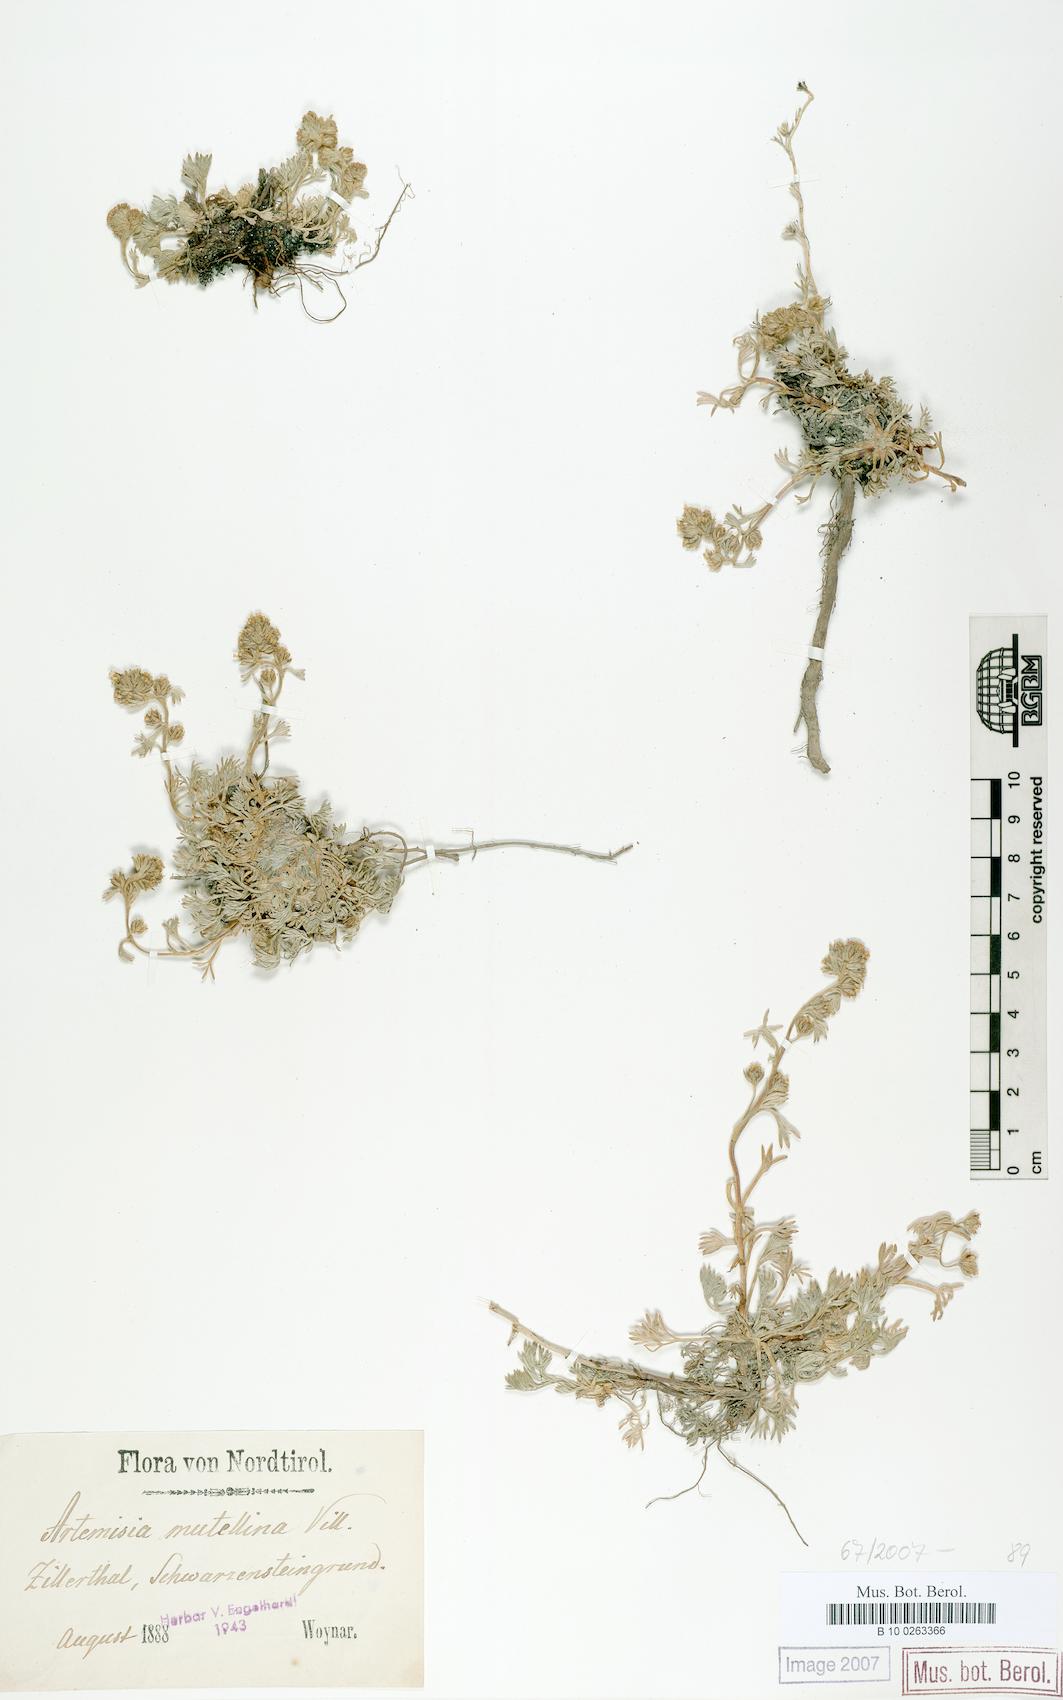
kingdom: Plantae
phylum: Tracheophyta
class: Magnoliopsida
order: Asterales
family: Asteraceae
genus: Artemisia
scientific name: Artemisia mutellina
